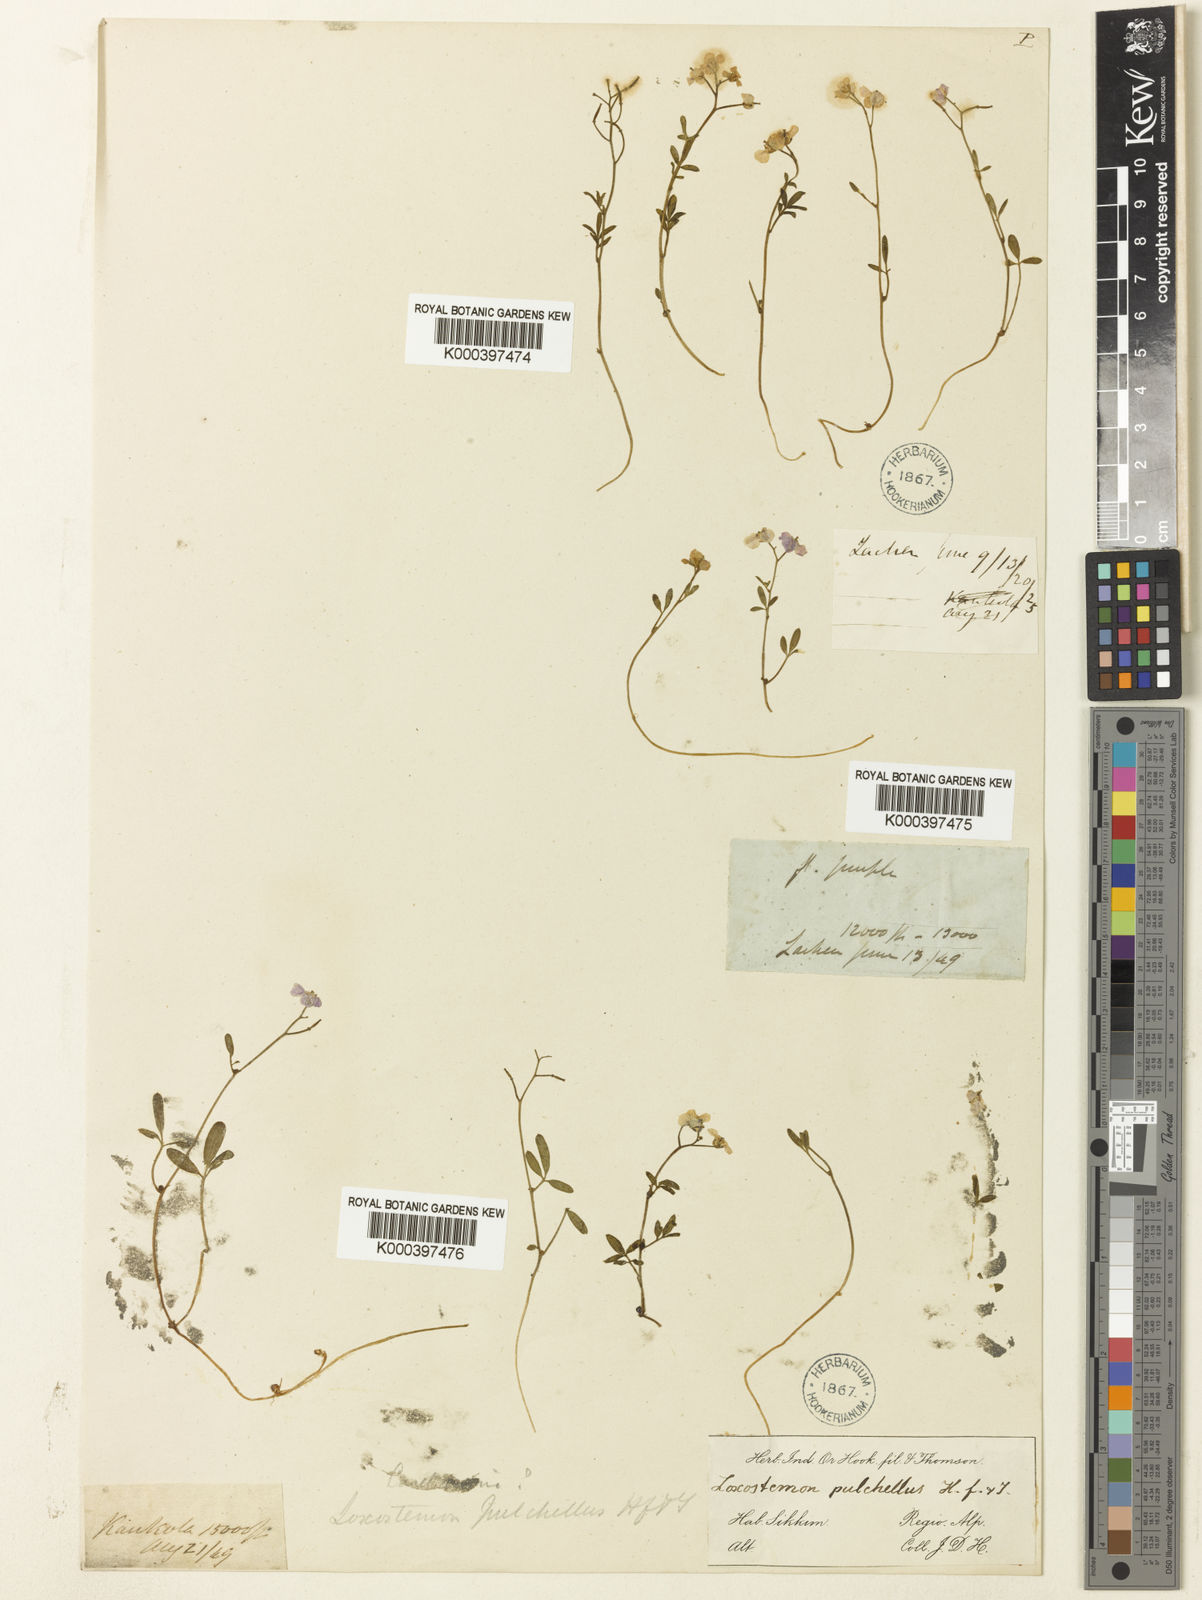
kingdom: Plantae
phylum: Tracheophyta
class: Magnoliopsida
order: Brassicales
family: Brassicaceae
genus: Cardamine
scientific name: Cardamine pulchella
